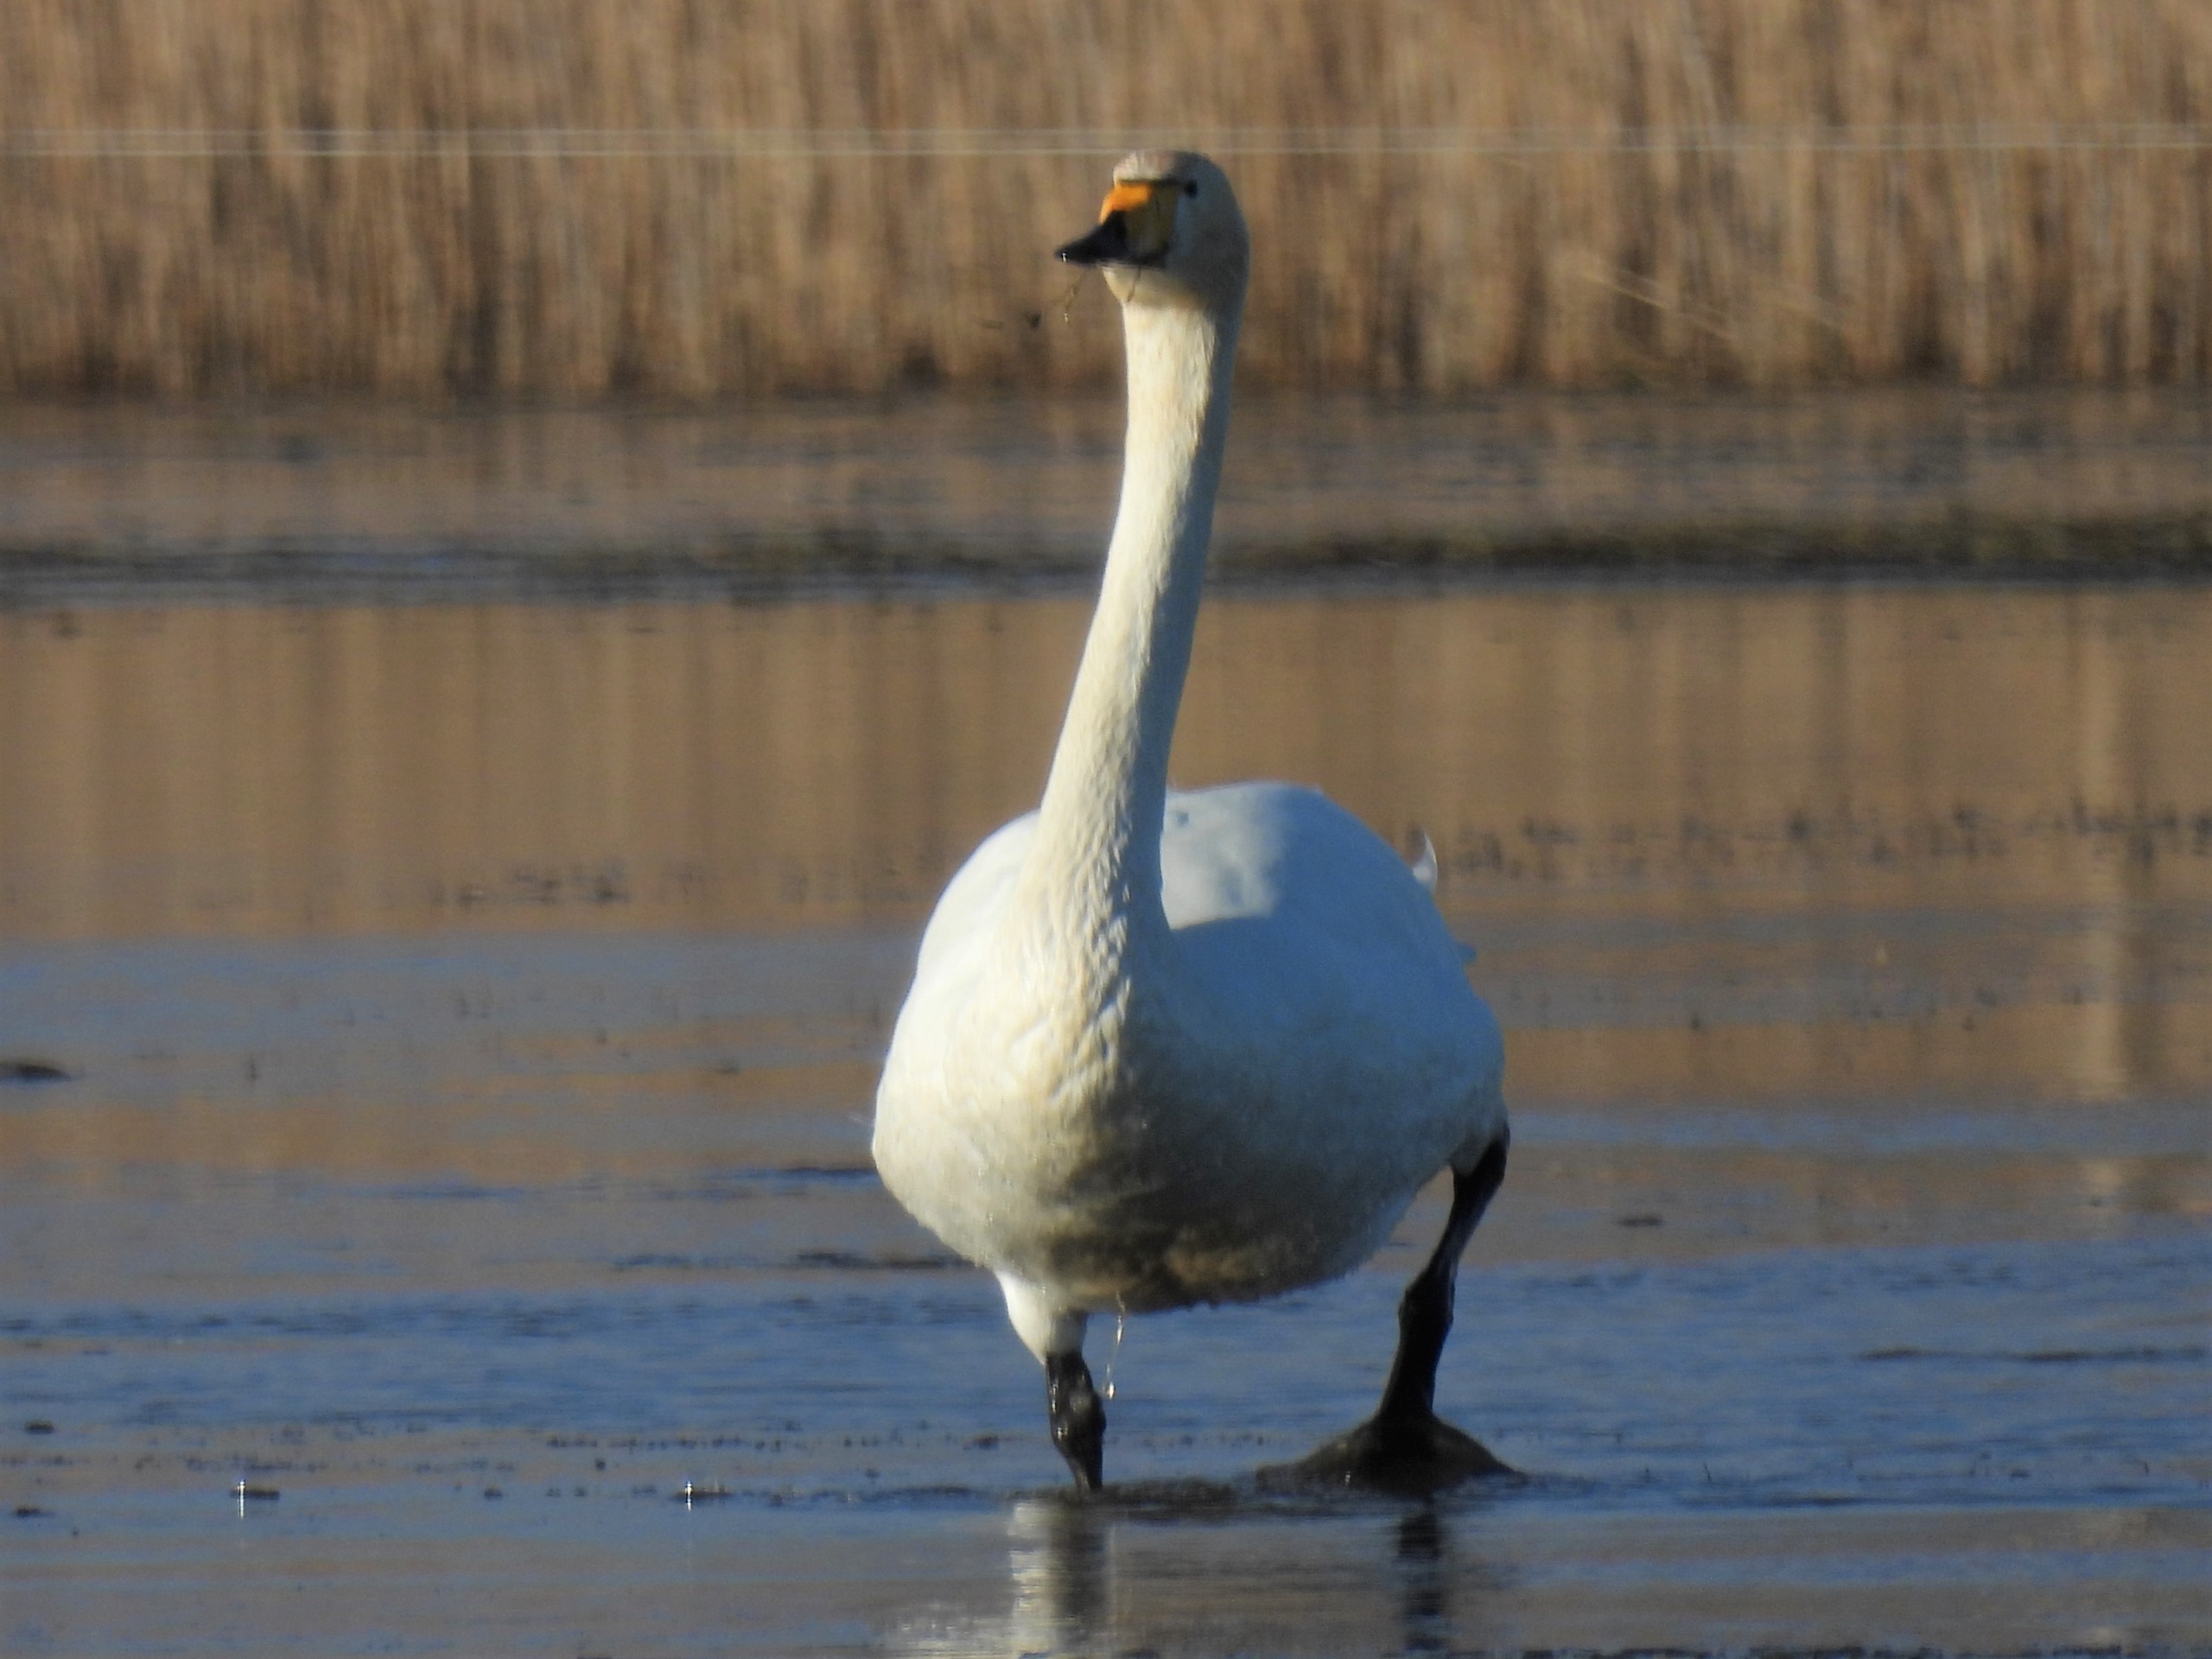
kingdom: Animalia
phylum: Chordata
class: Aves
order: Anseriformes
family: Anatidae
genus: Cygnus
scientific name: Cygnus cygnus
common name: Sangsvane
